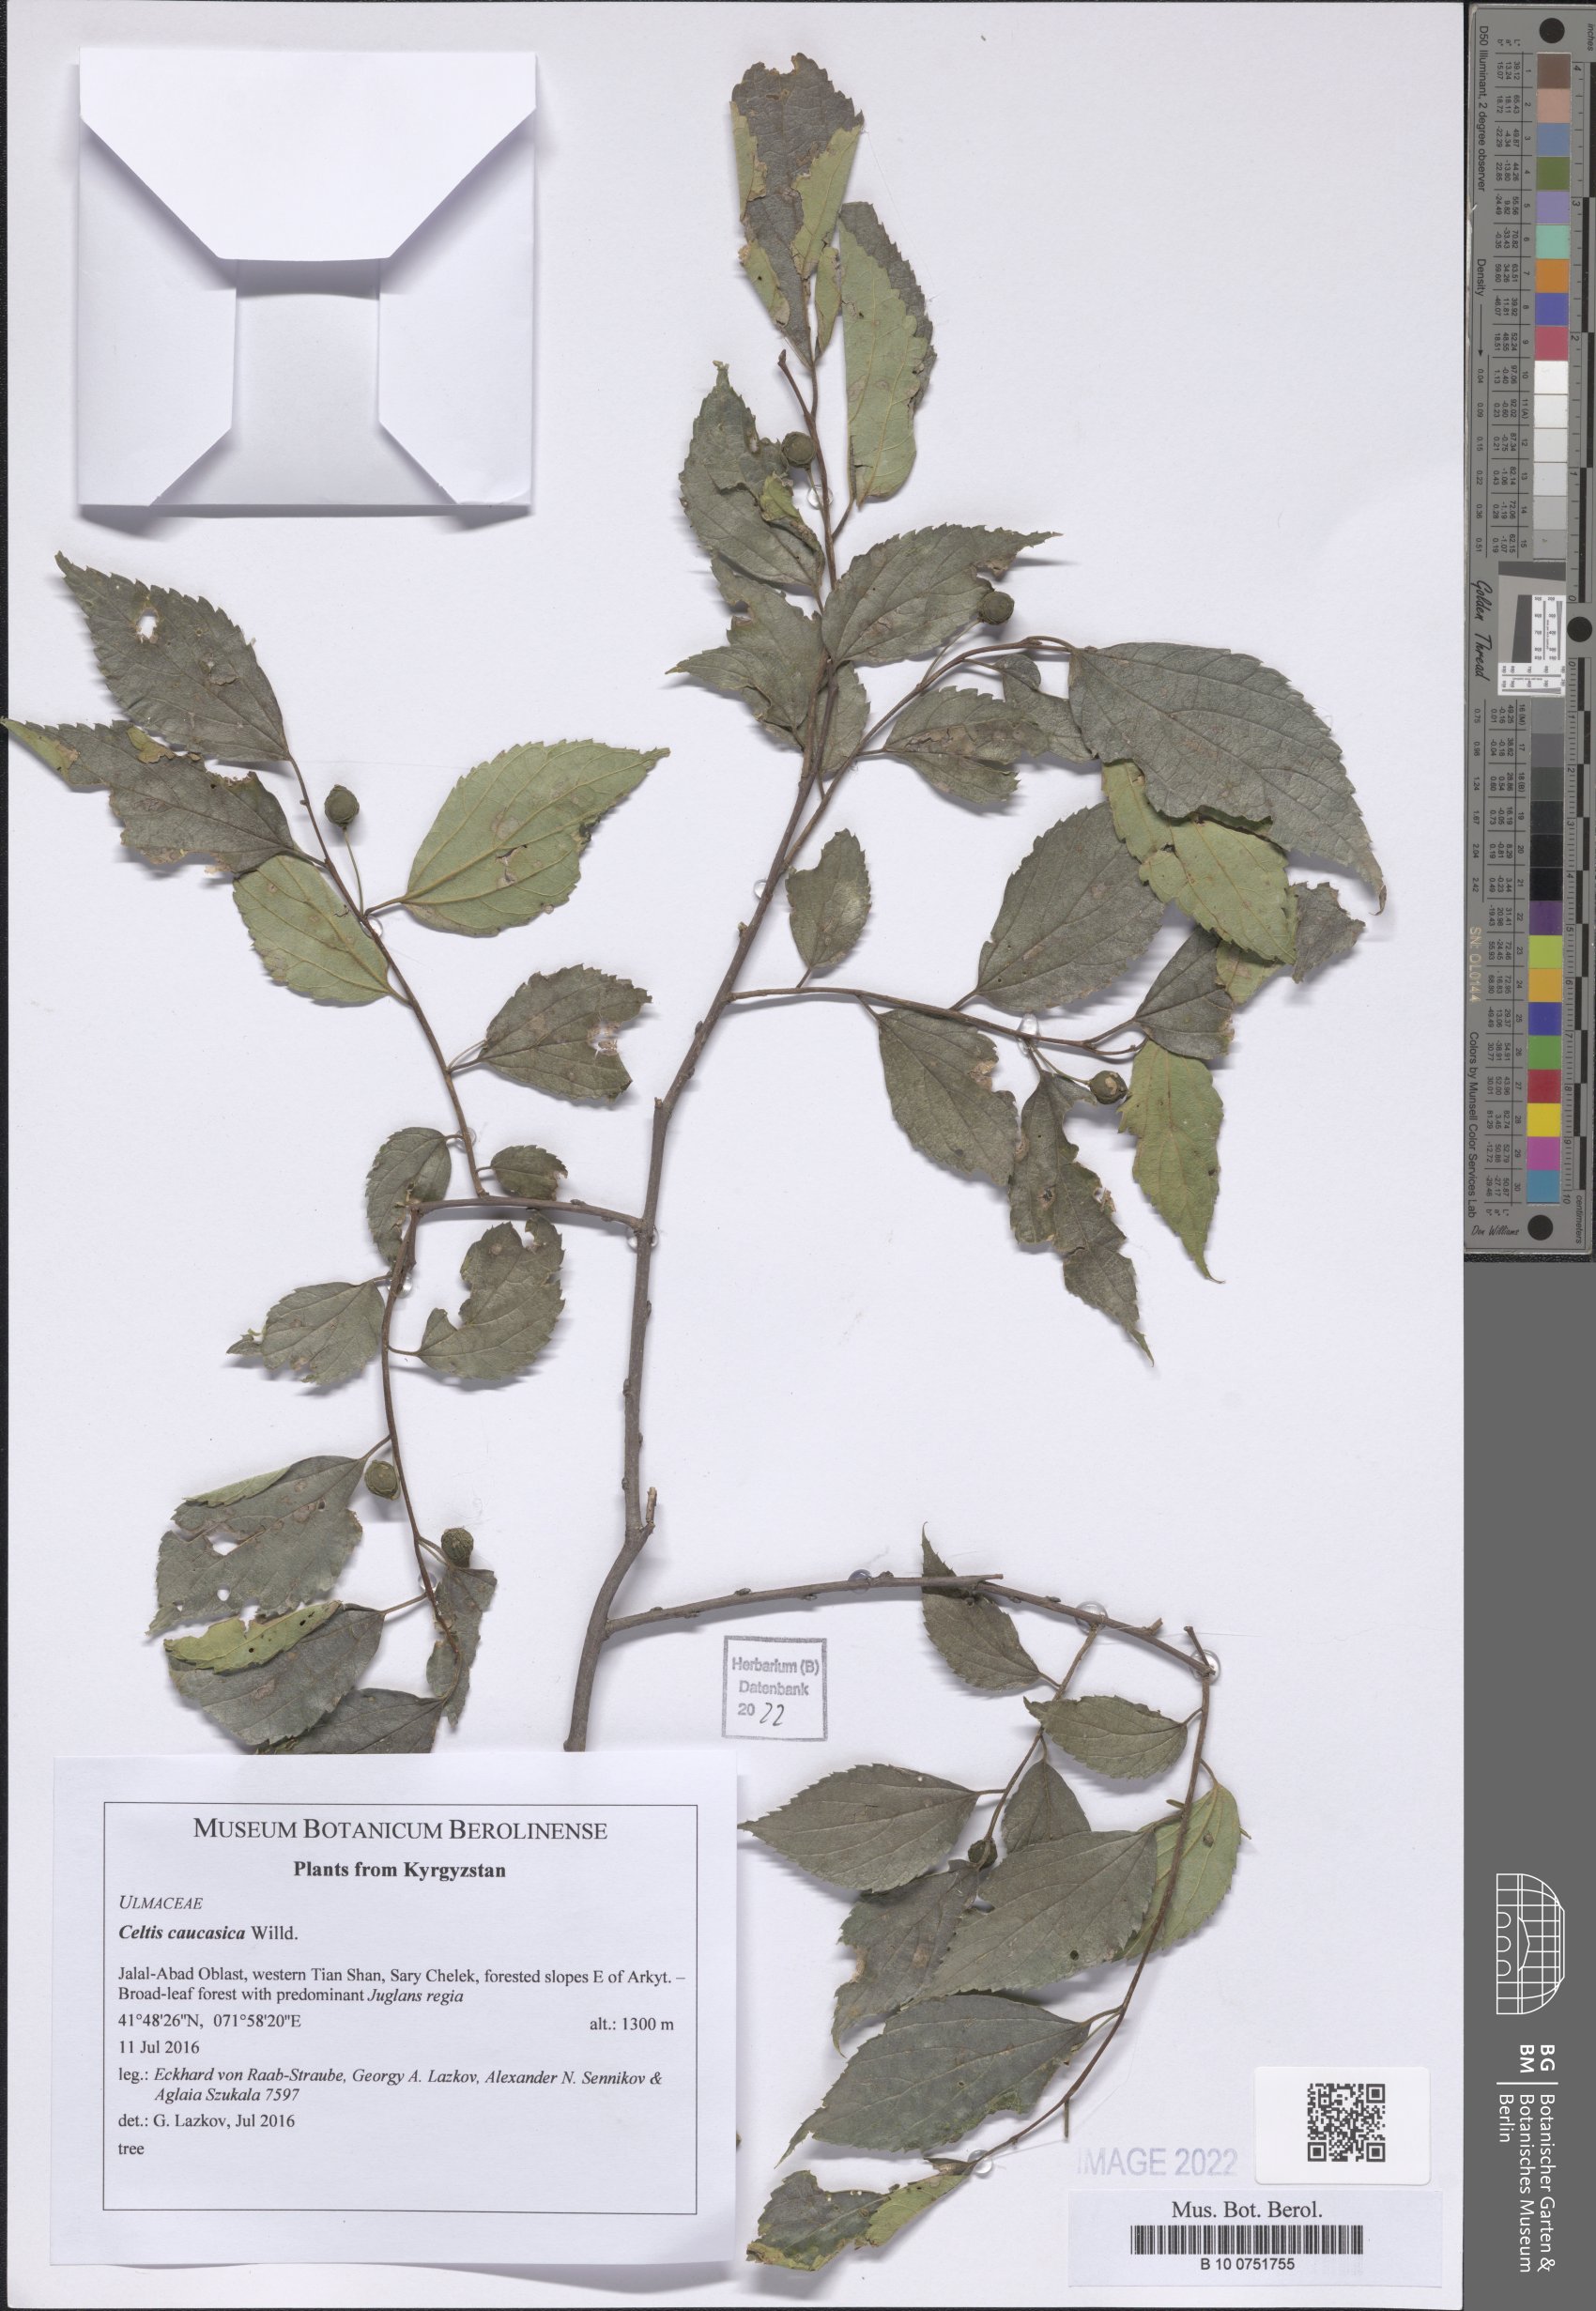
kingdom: Plantae
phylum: Tracheophyta
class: Magnoliopsida
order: Rosales
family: Cannabaceae
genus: Celtis
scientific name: Celtis caucasica
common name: Caucasian hackberry
